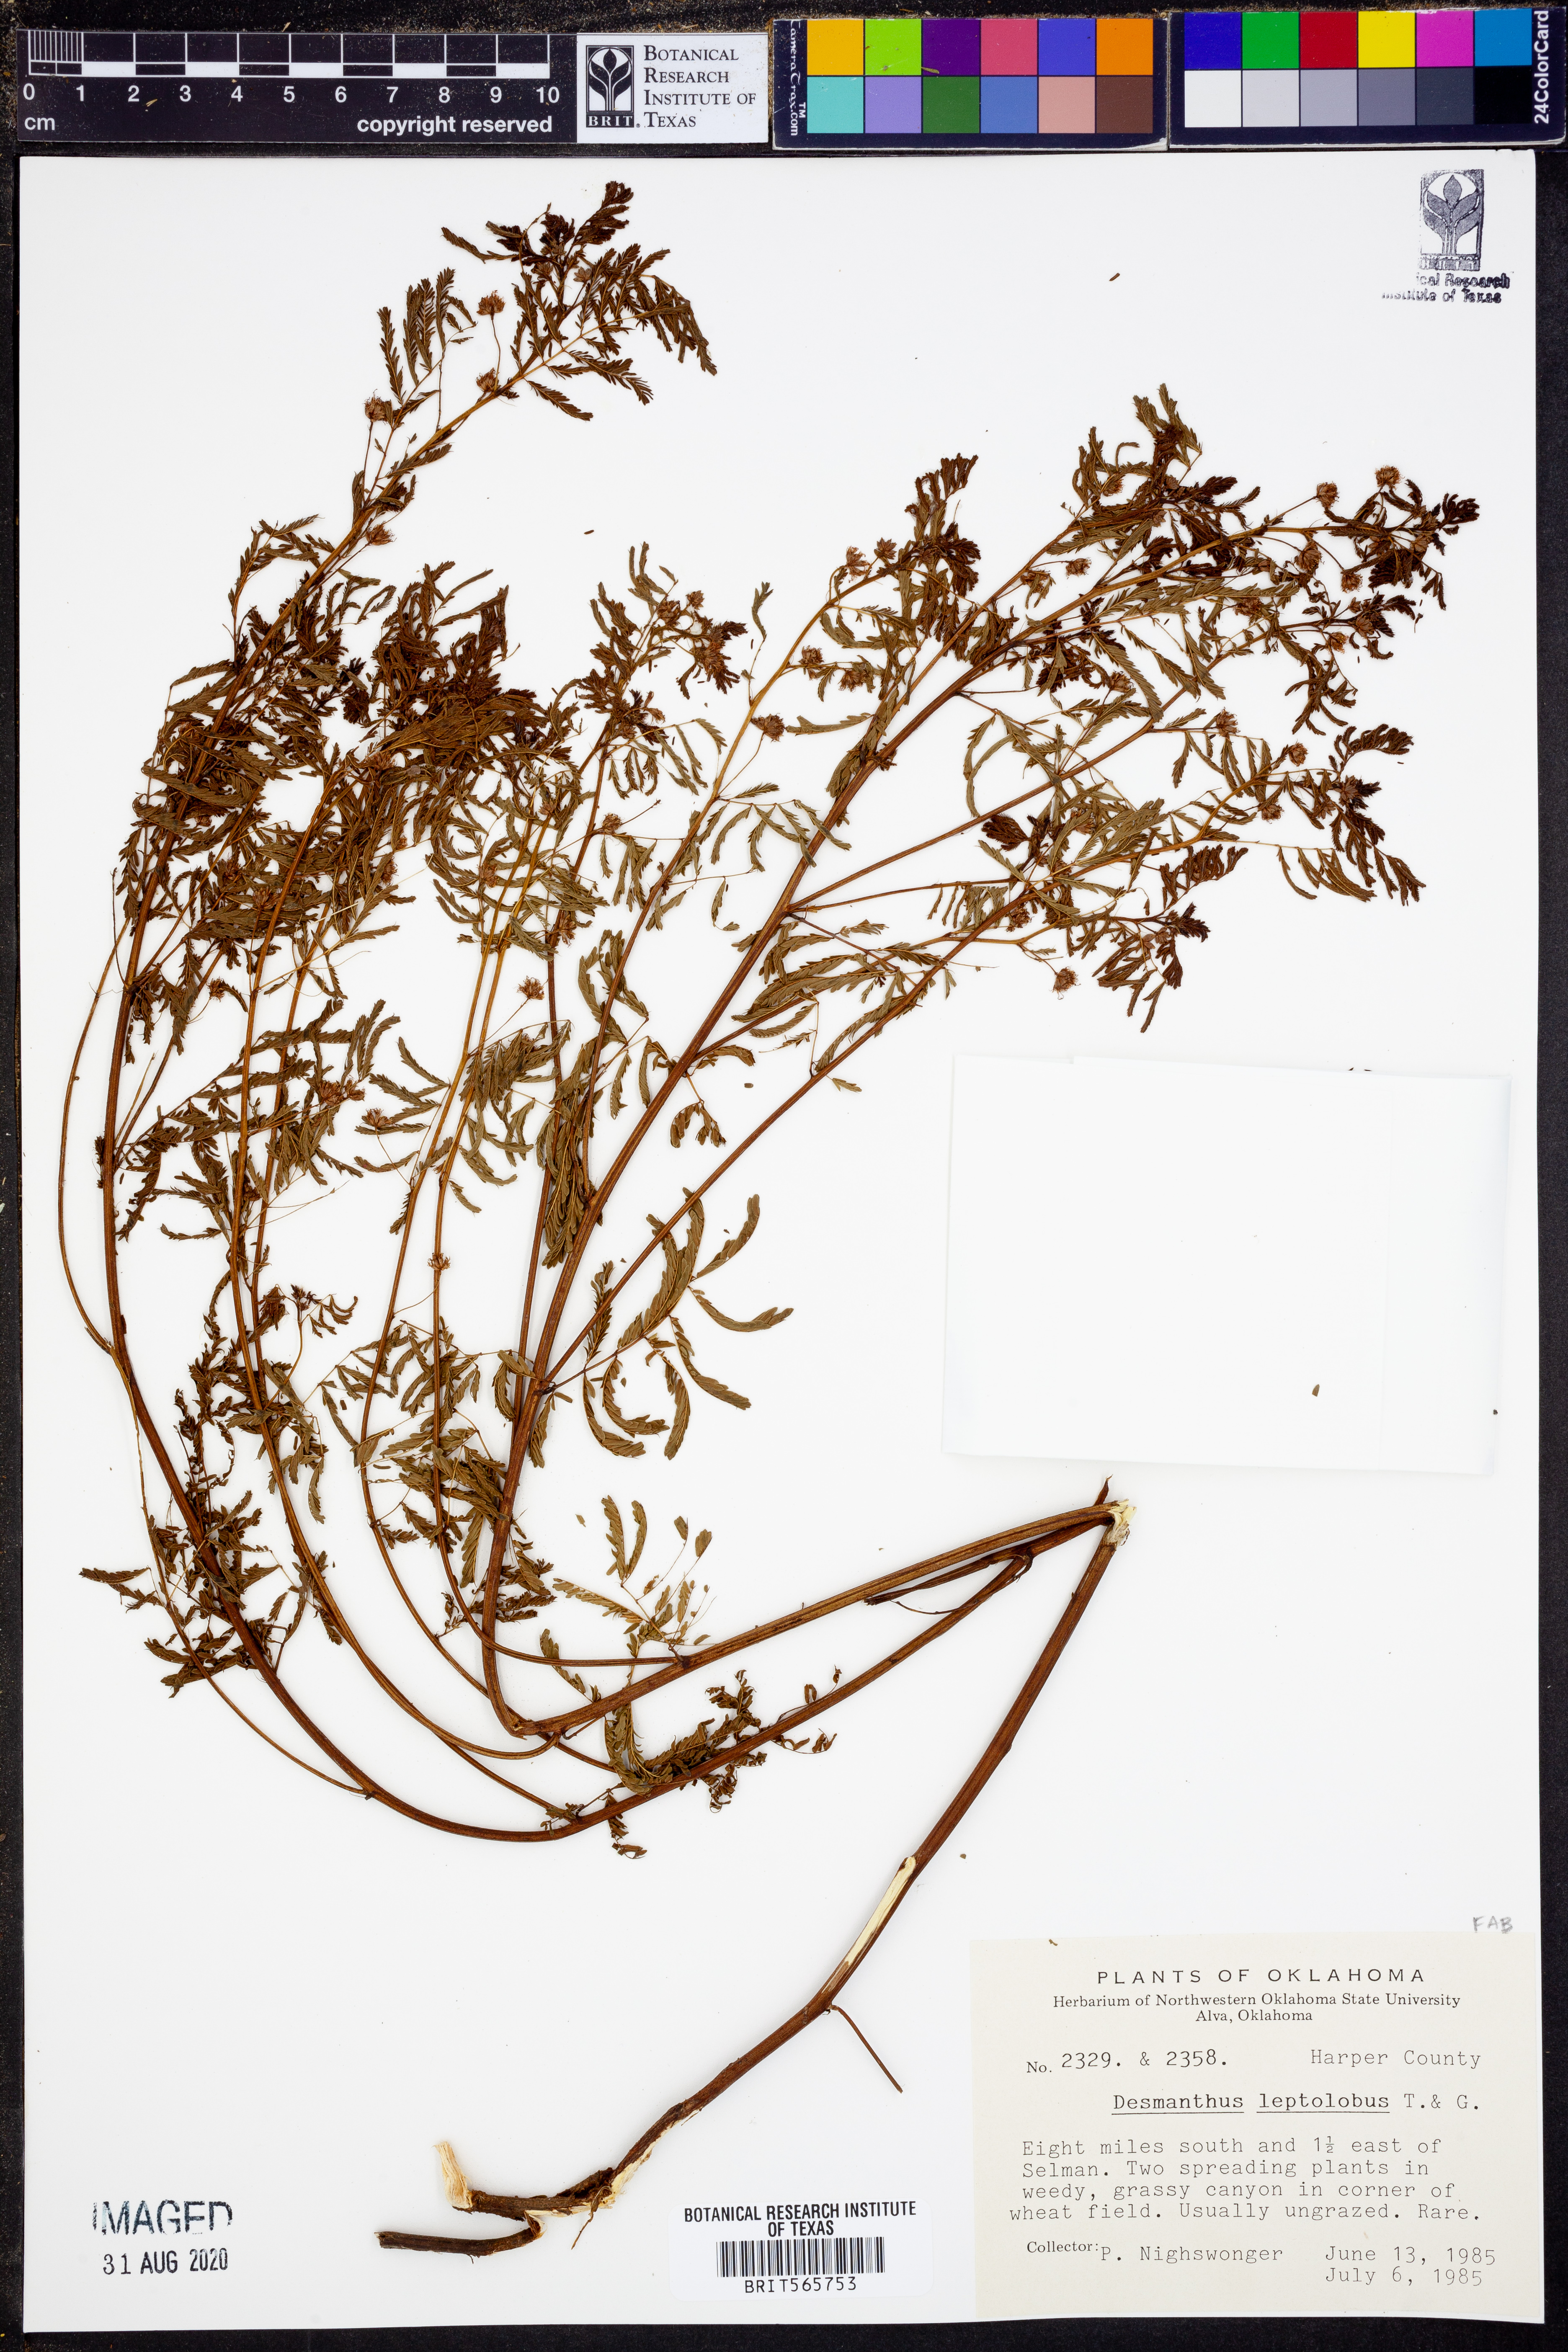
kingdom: Plantae
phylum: Tracheophyta
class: Magnoliopsida
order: Fabales
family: Fabaceae
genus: Desmanthus
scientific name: Desmanthus leptolobus
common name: Prairie-mimosa
